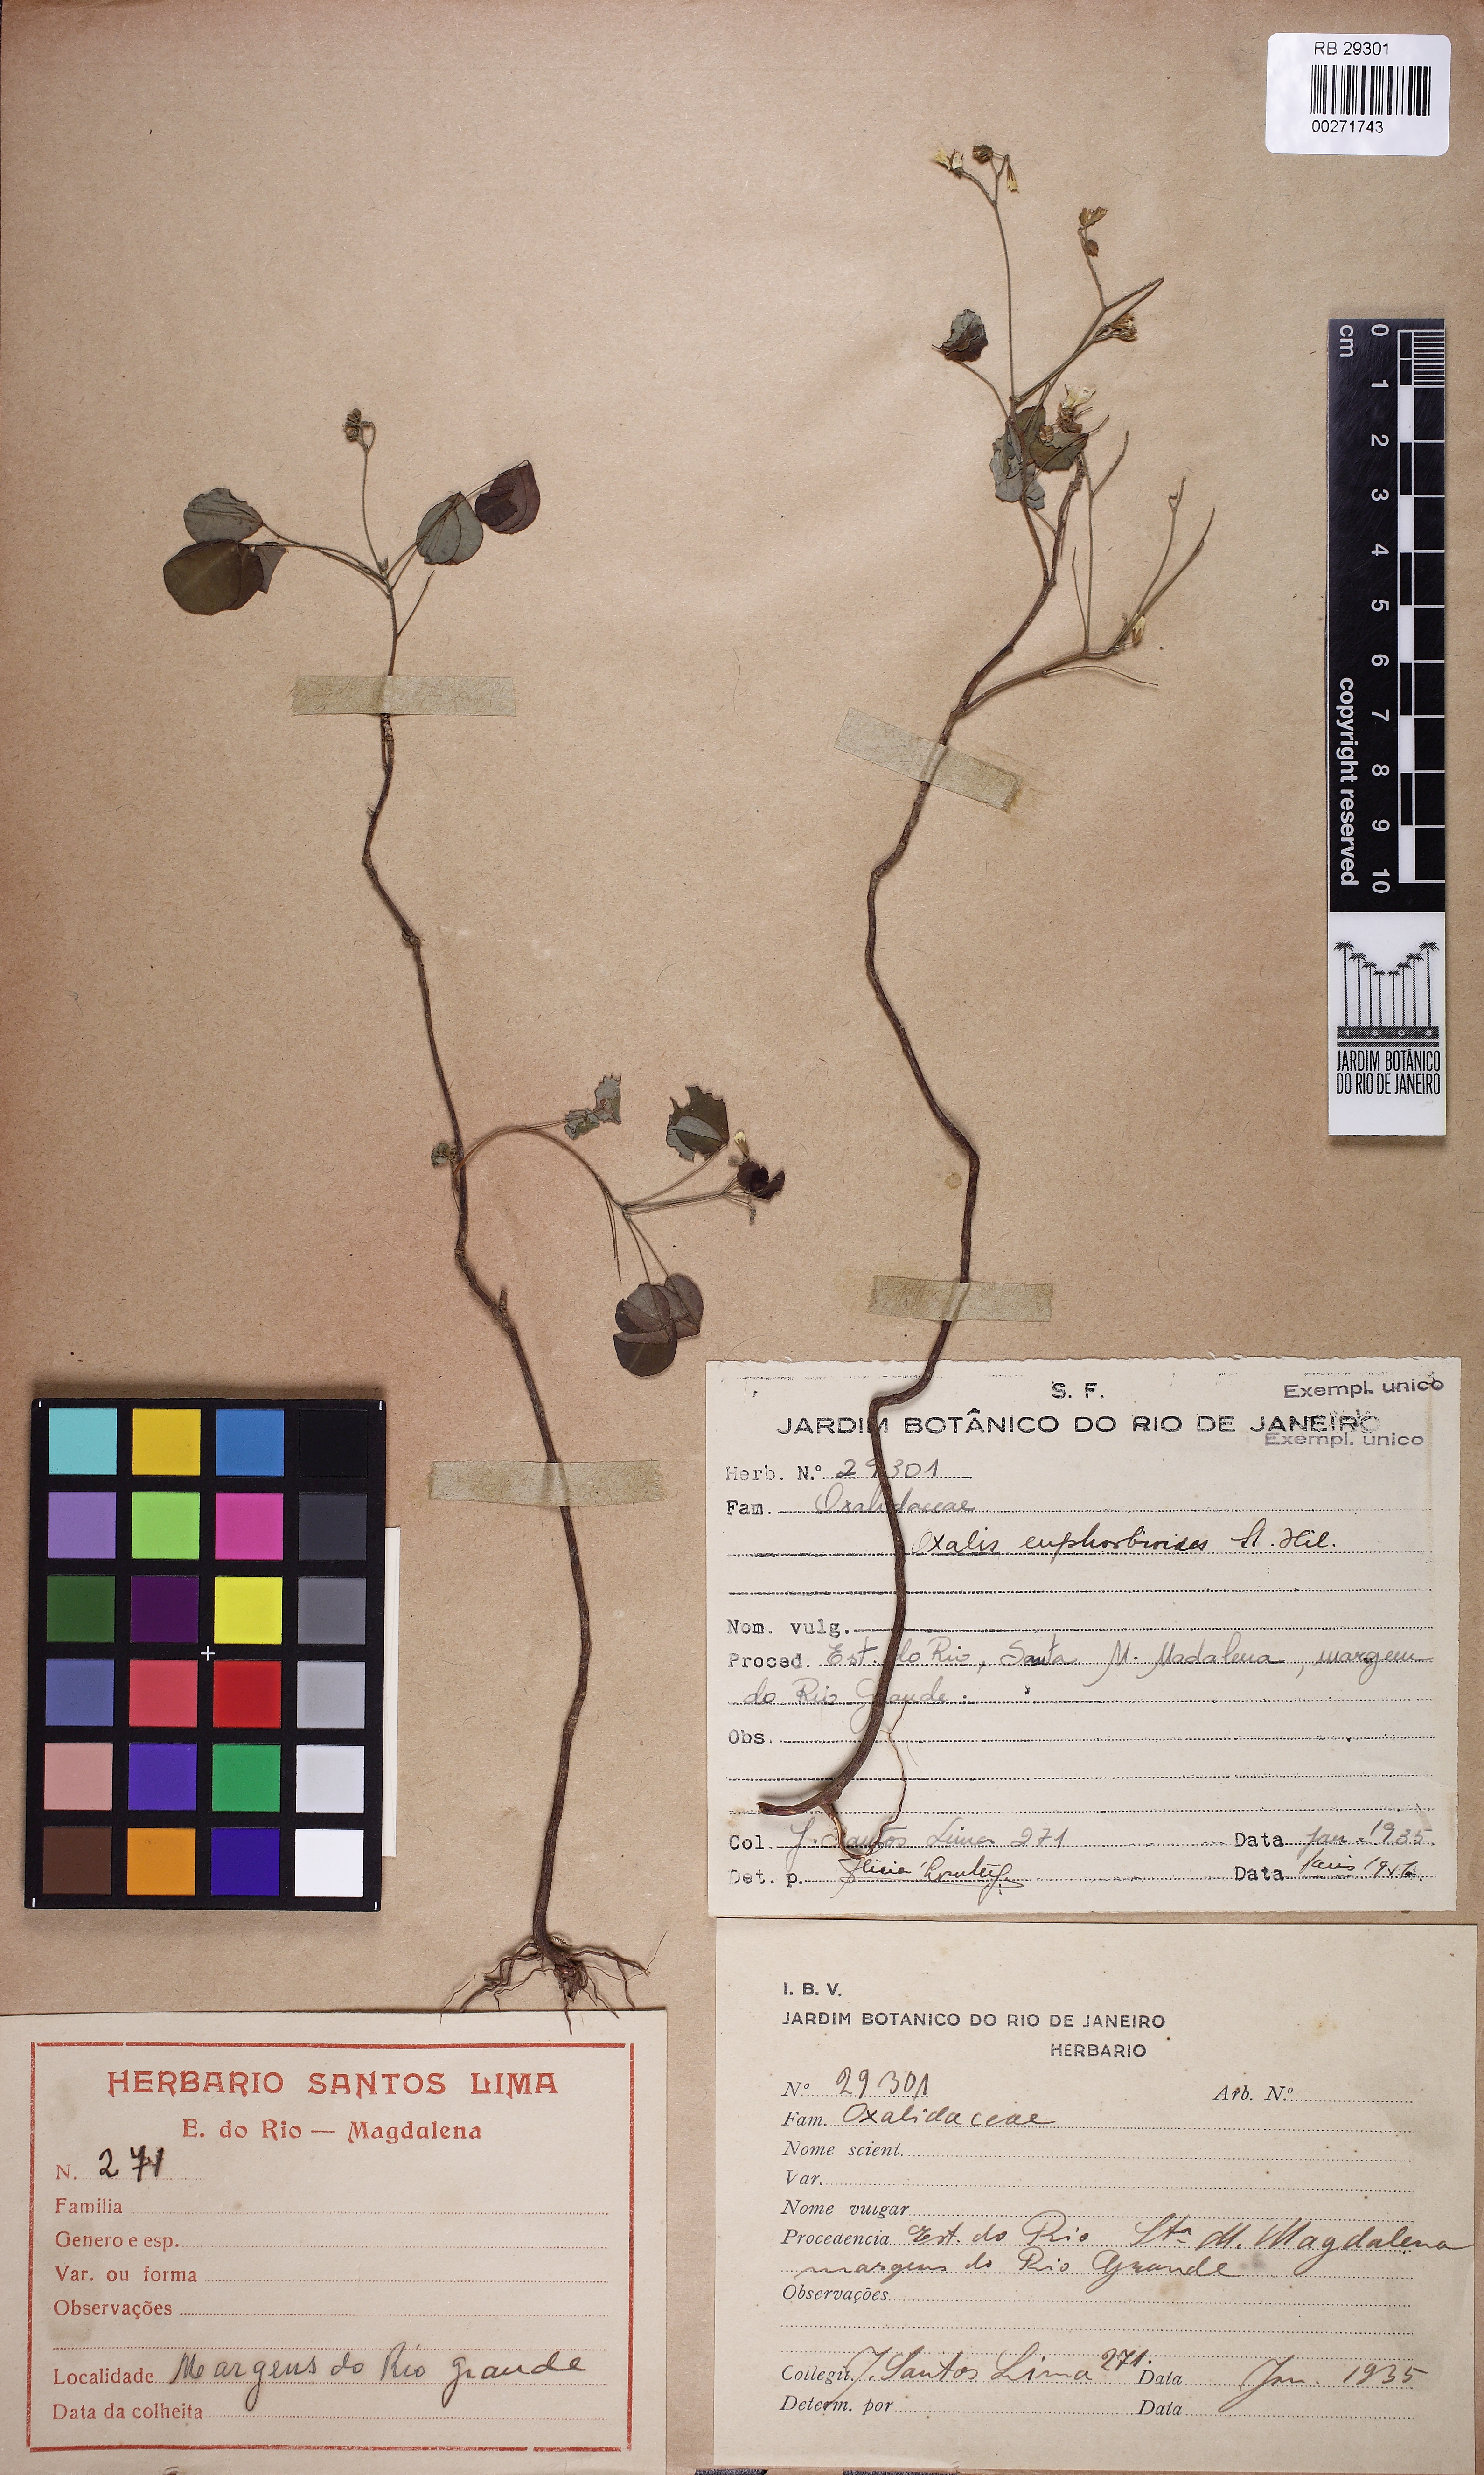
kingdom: Plantae
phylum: Tracheophyta
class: Magnoliopsida
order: Oxalidales
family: Oxalidaceae
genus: Oxalis
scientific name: Oxalis divaricata
